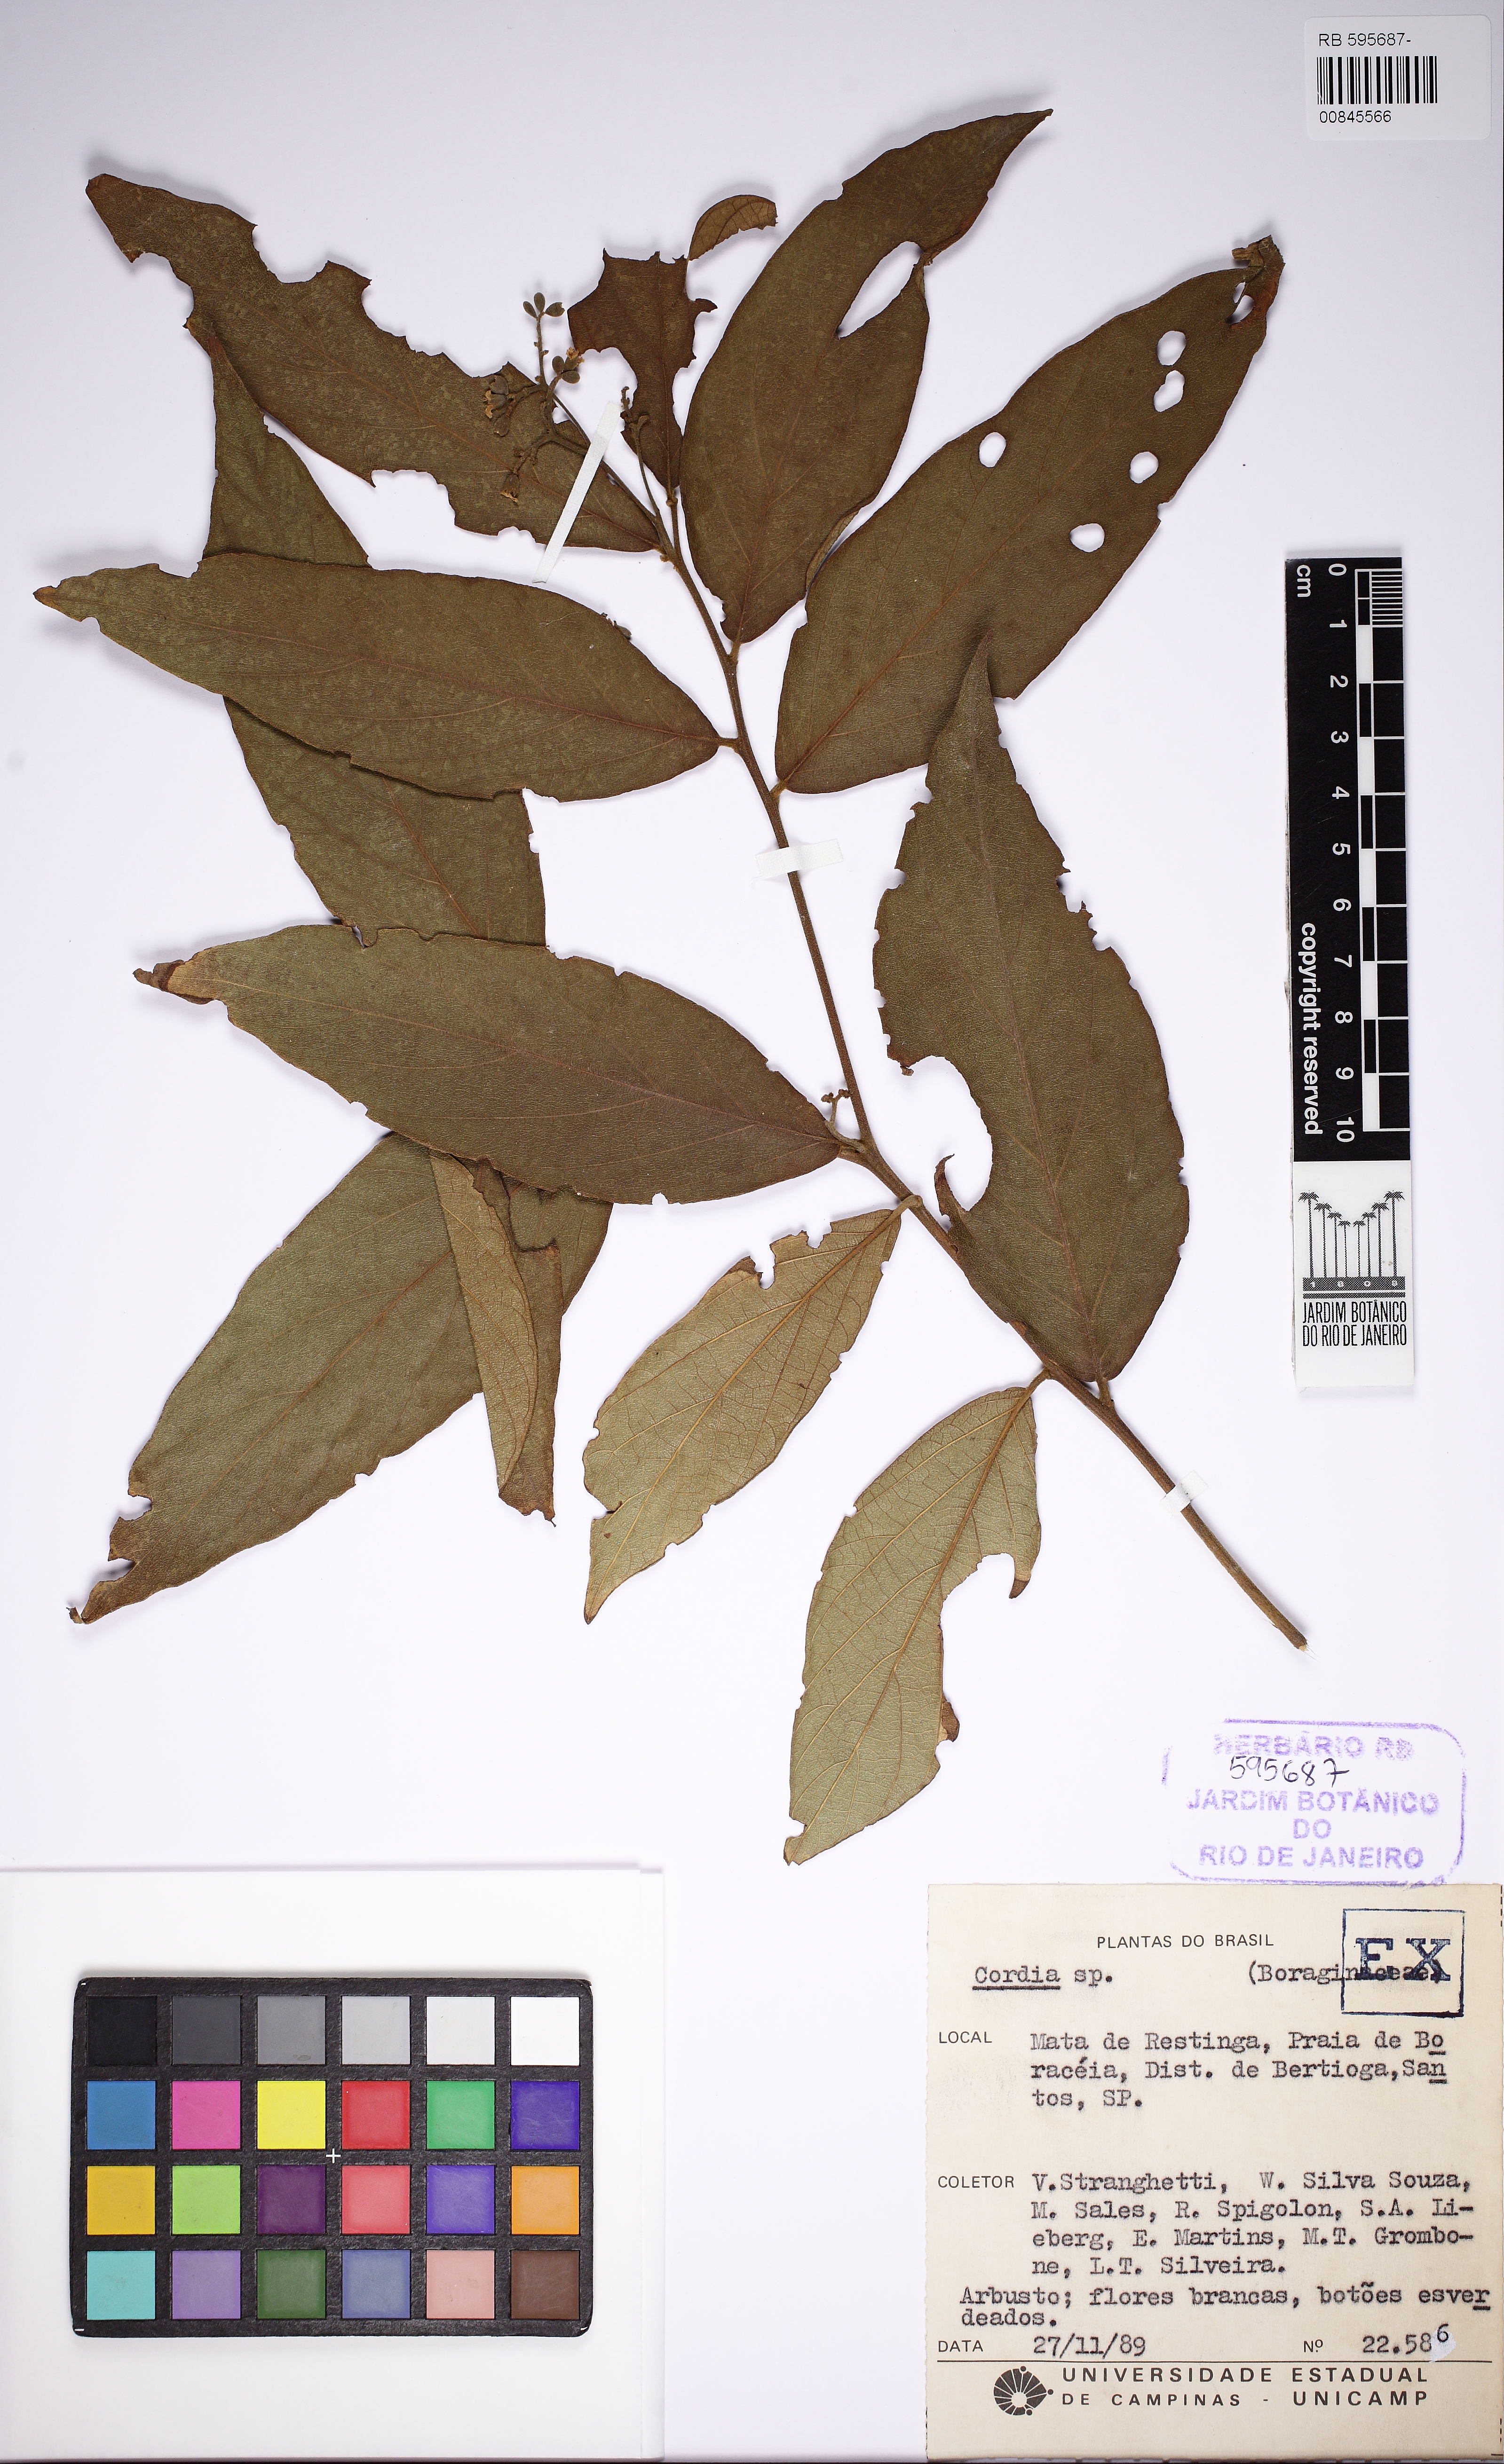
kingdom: Plantae
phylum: Tracheophyta
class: Magnoliopsida
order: Boraginales
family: Cordiaceae
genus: Cordia
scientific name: Cordia
